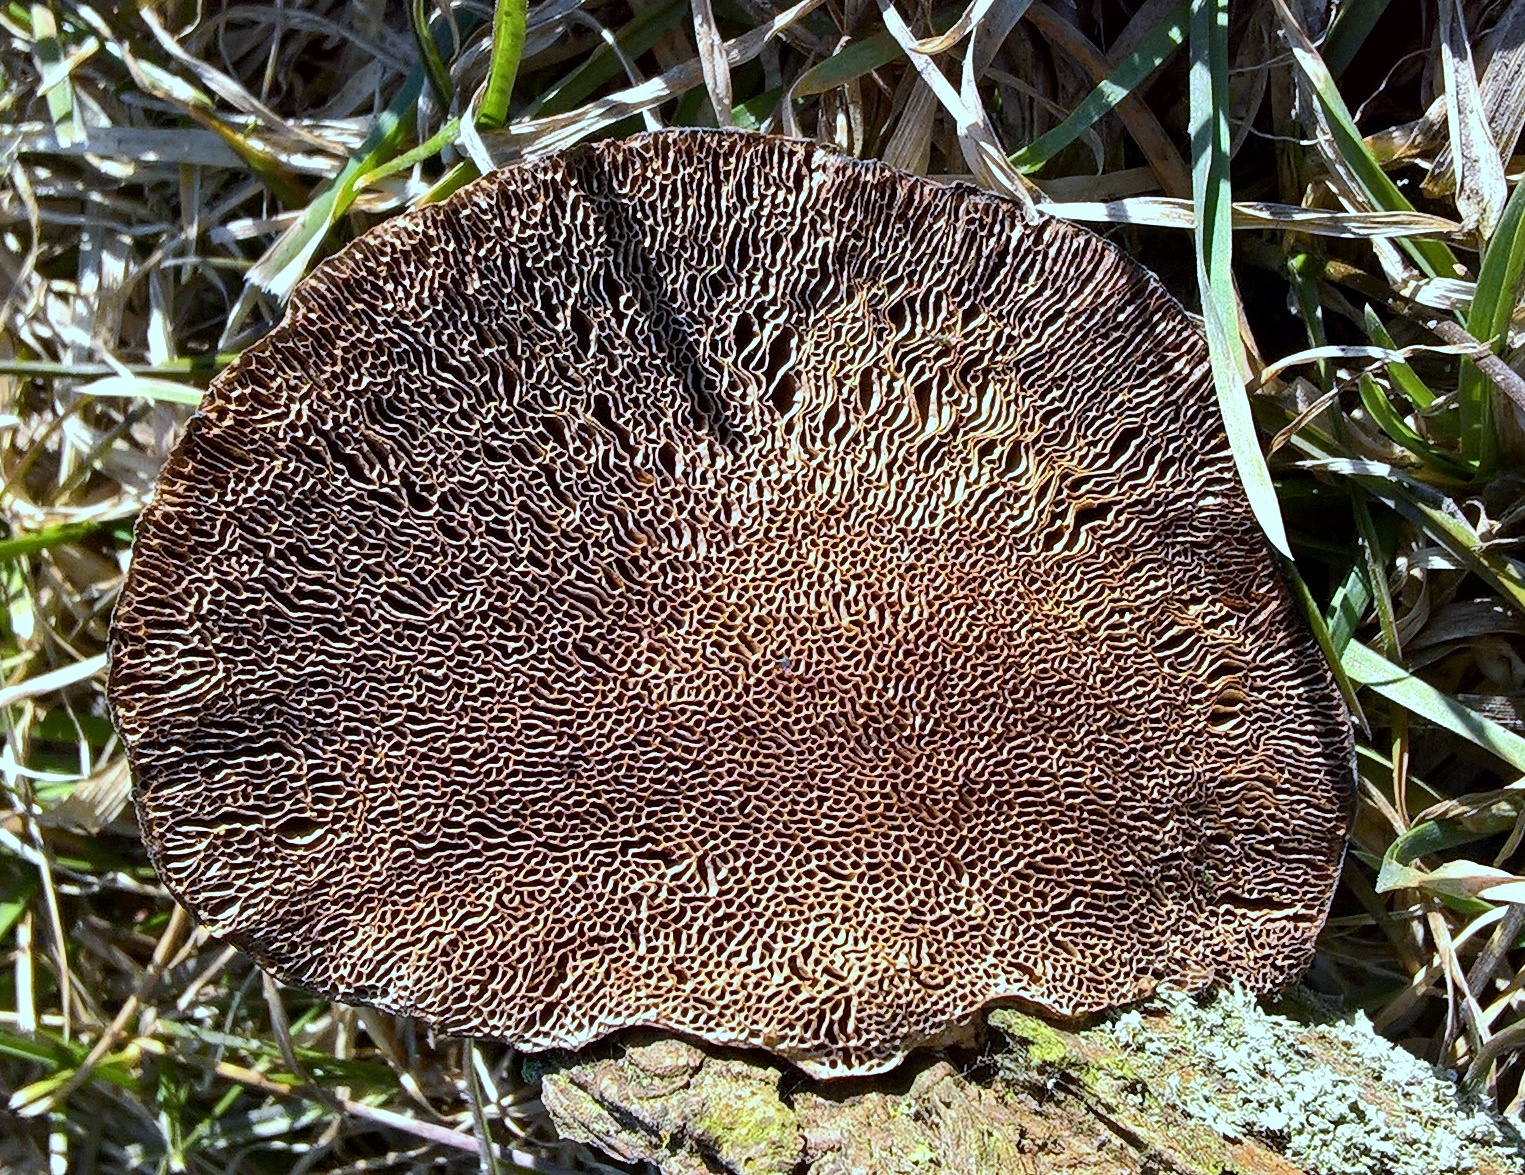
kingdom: Fungi
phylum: Basidiomycota
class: Agaricomycetes
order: Polyporales
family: Polyporaceae
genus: Daedaleopsis
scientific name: Daedaleopsis confragosa
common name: rødmende læderporesvamp
